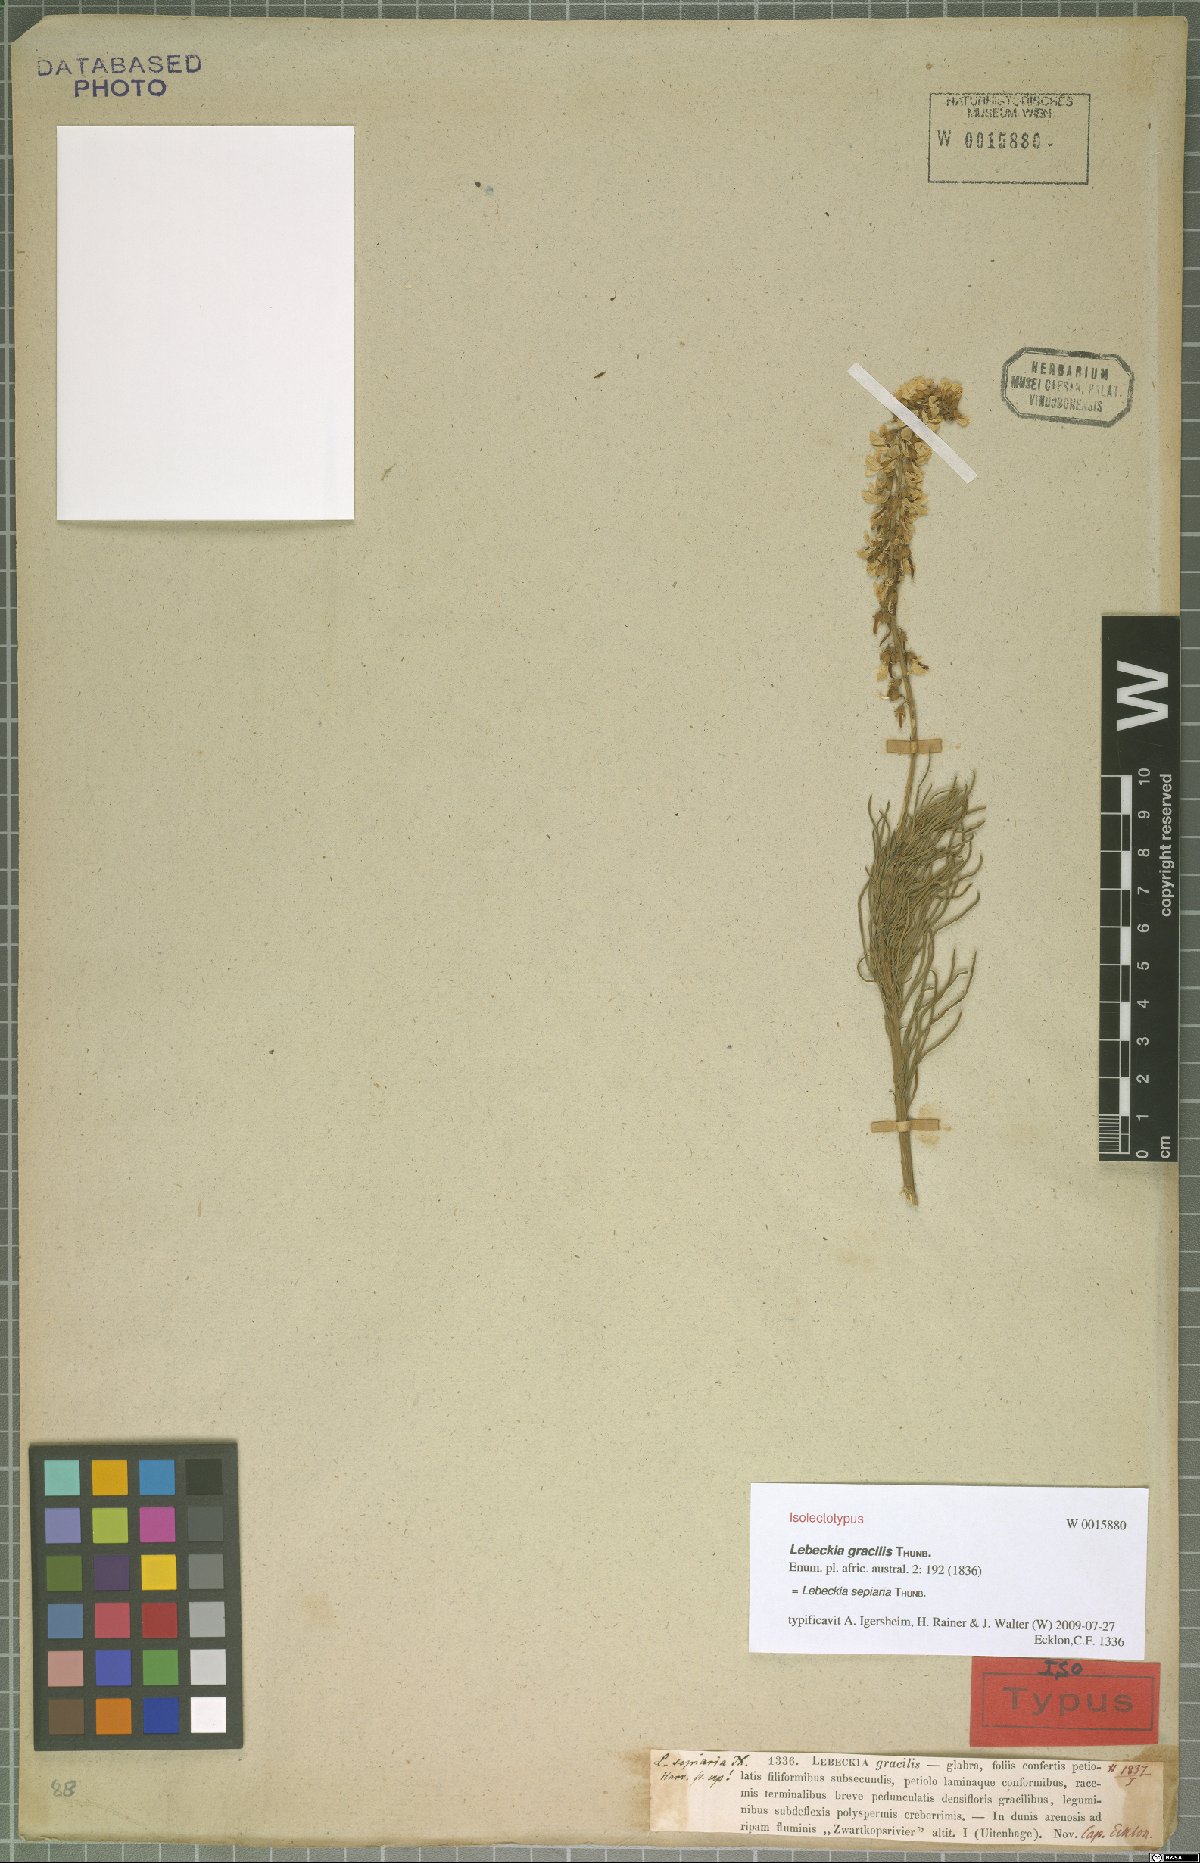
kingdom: Plantae
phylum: Tracheophyta
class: Magnoliopsida
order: Fabales
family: Fabaceae
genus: Lebeckia
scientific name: Lebeckia sepiaria
